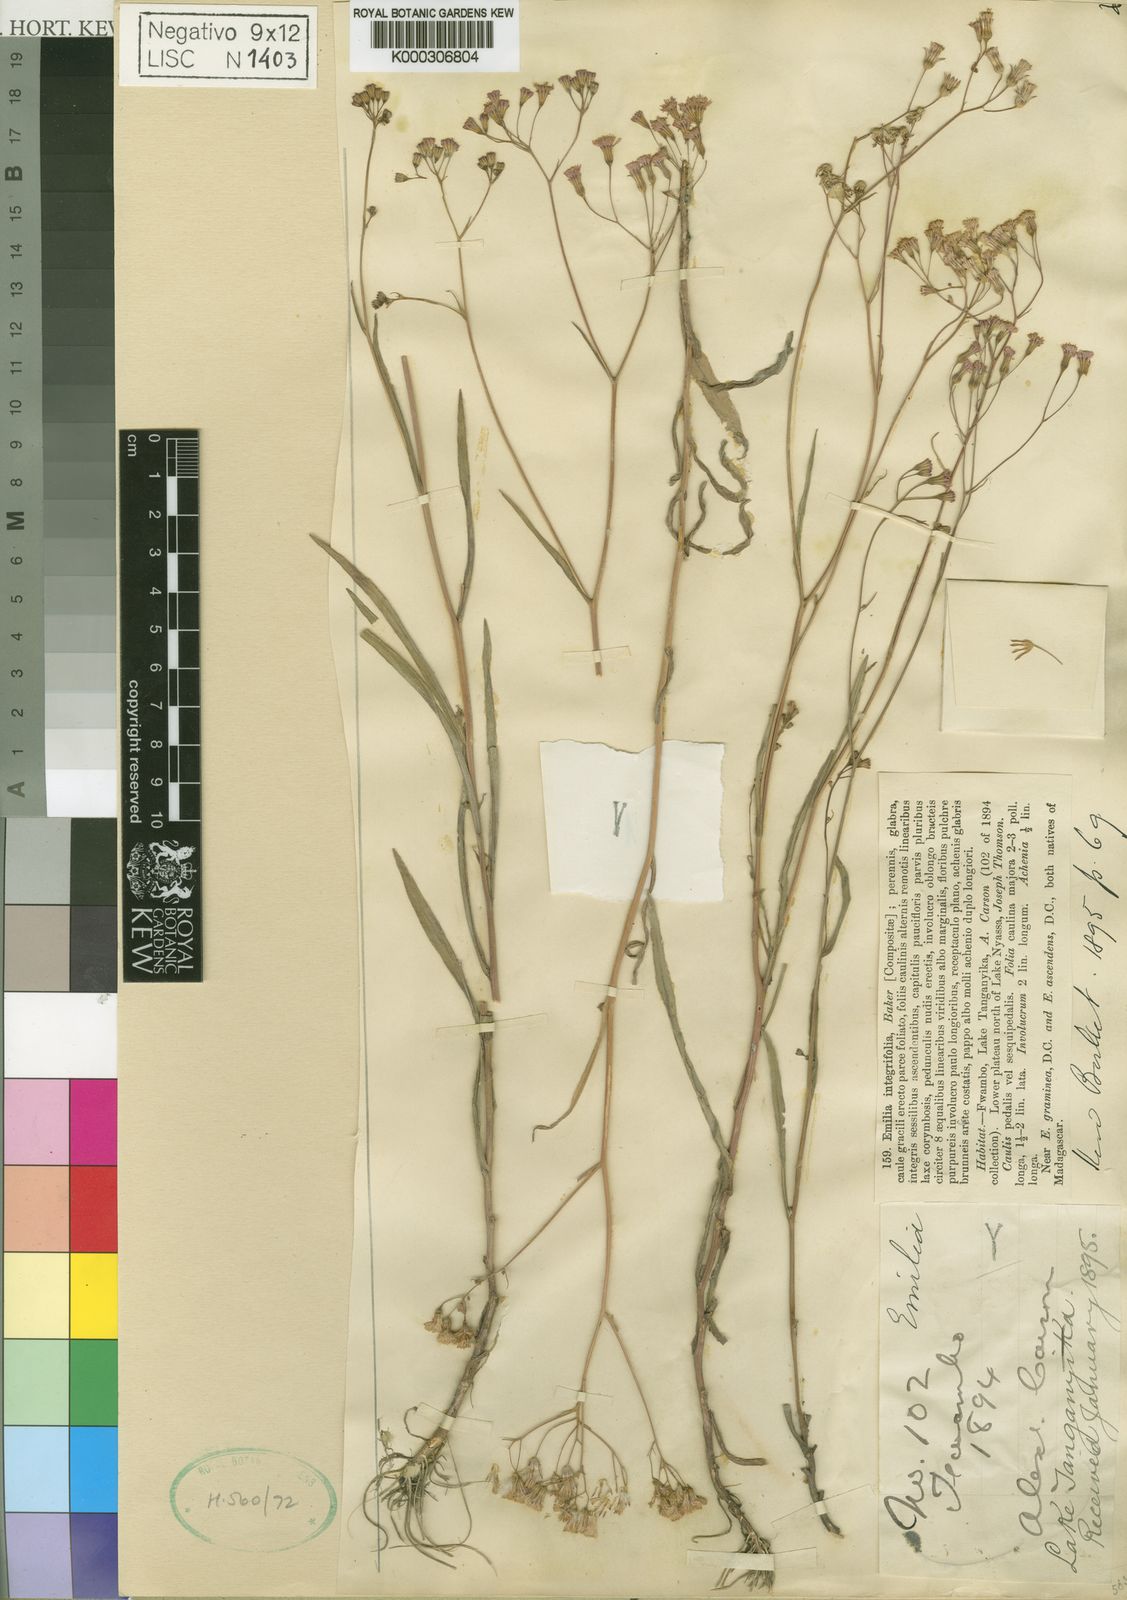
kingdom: Plantae
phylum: Tracheophyta
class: Magnoliopsida
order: Asterales
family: Asteraceae
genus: Emilia
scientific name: Emilia integrifolia
